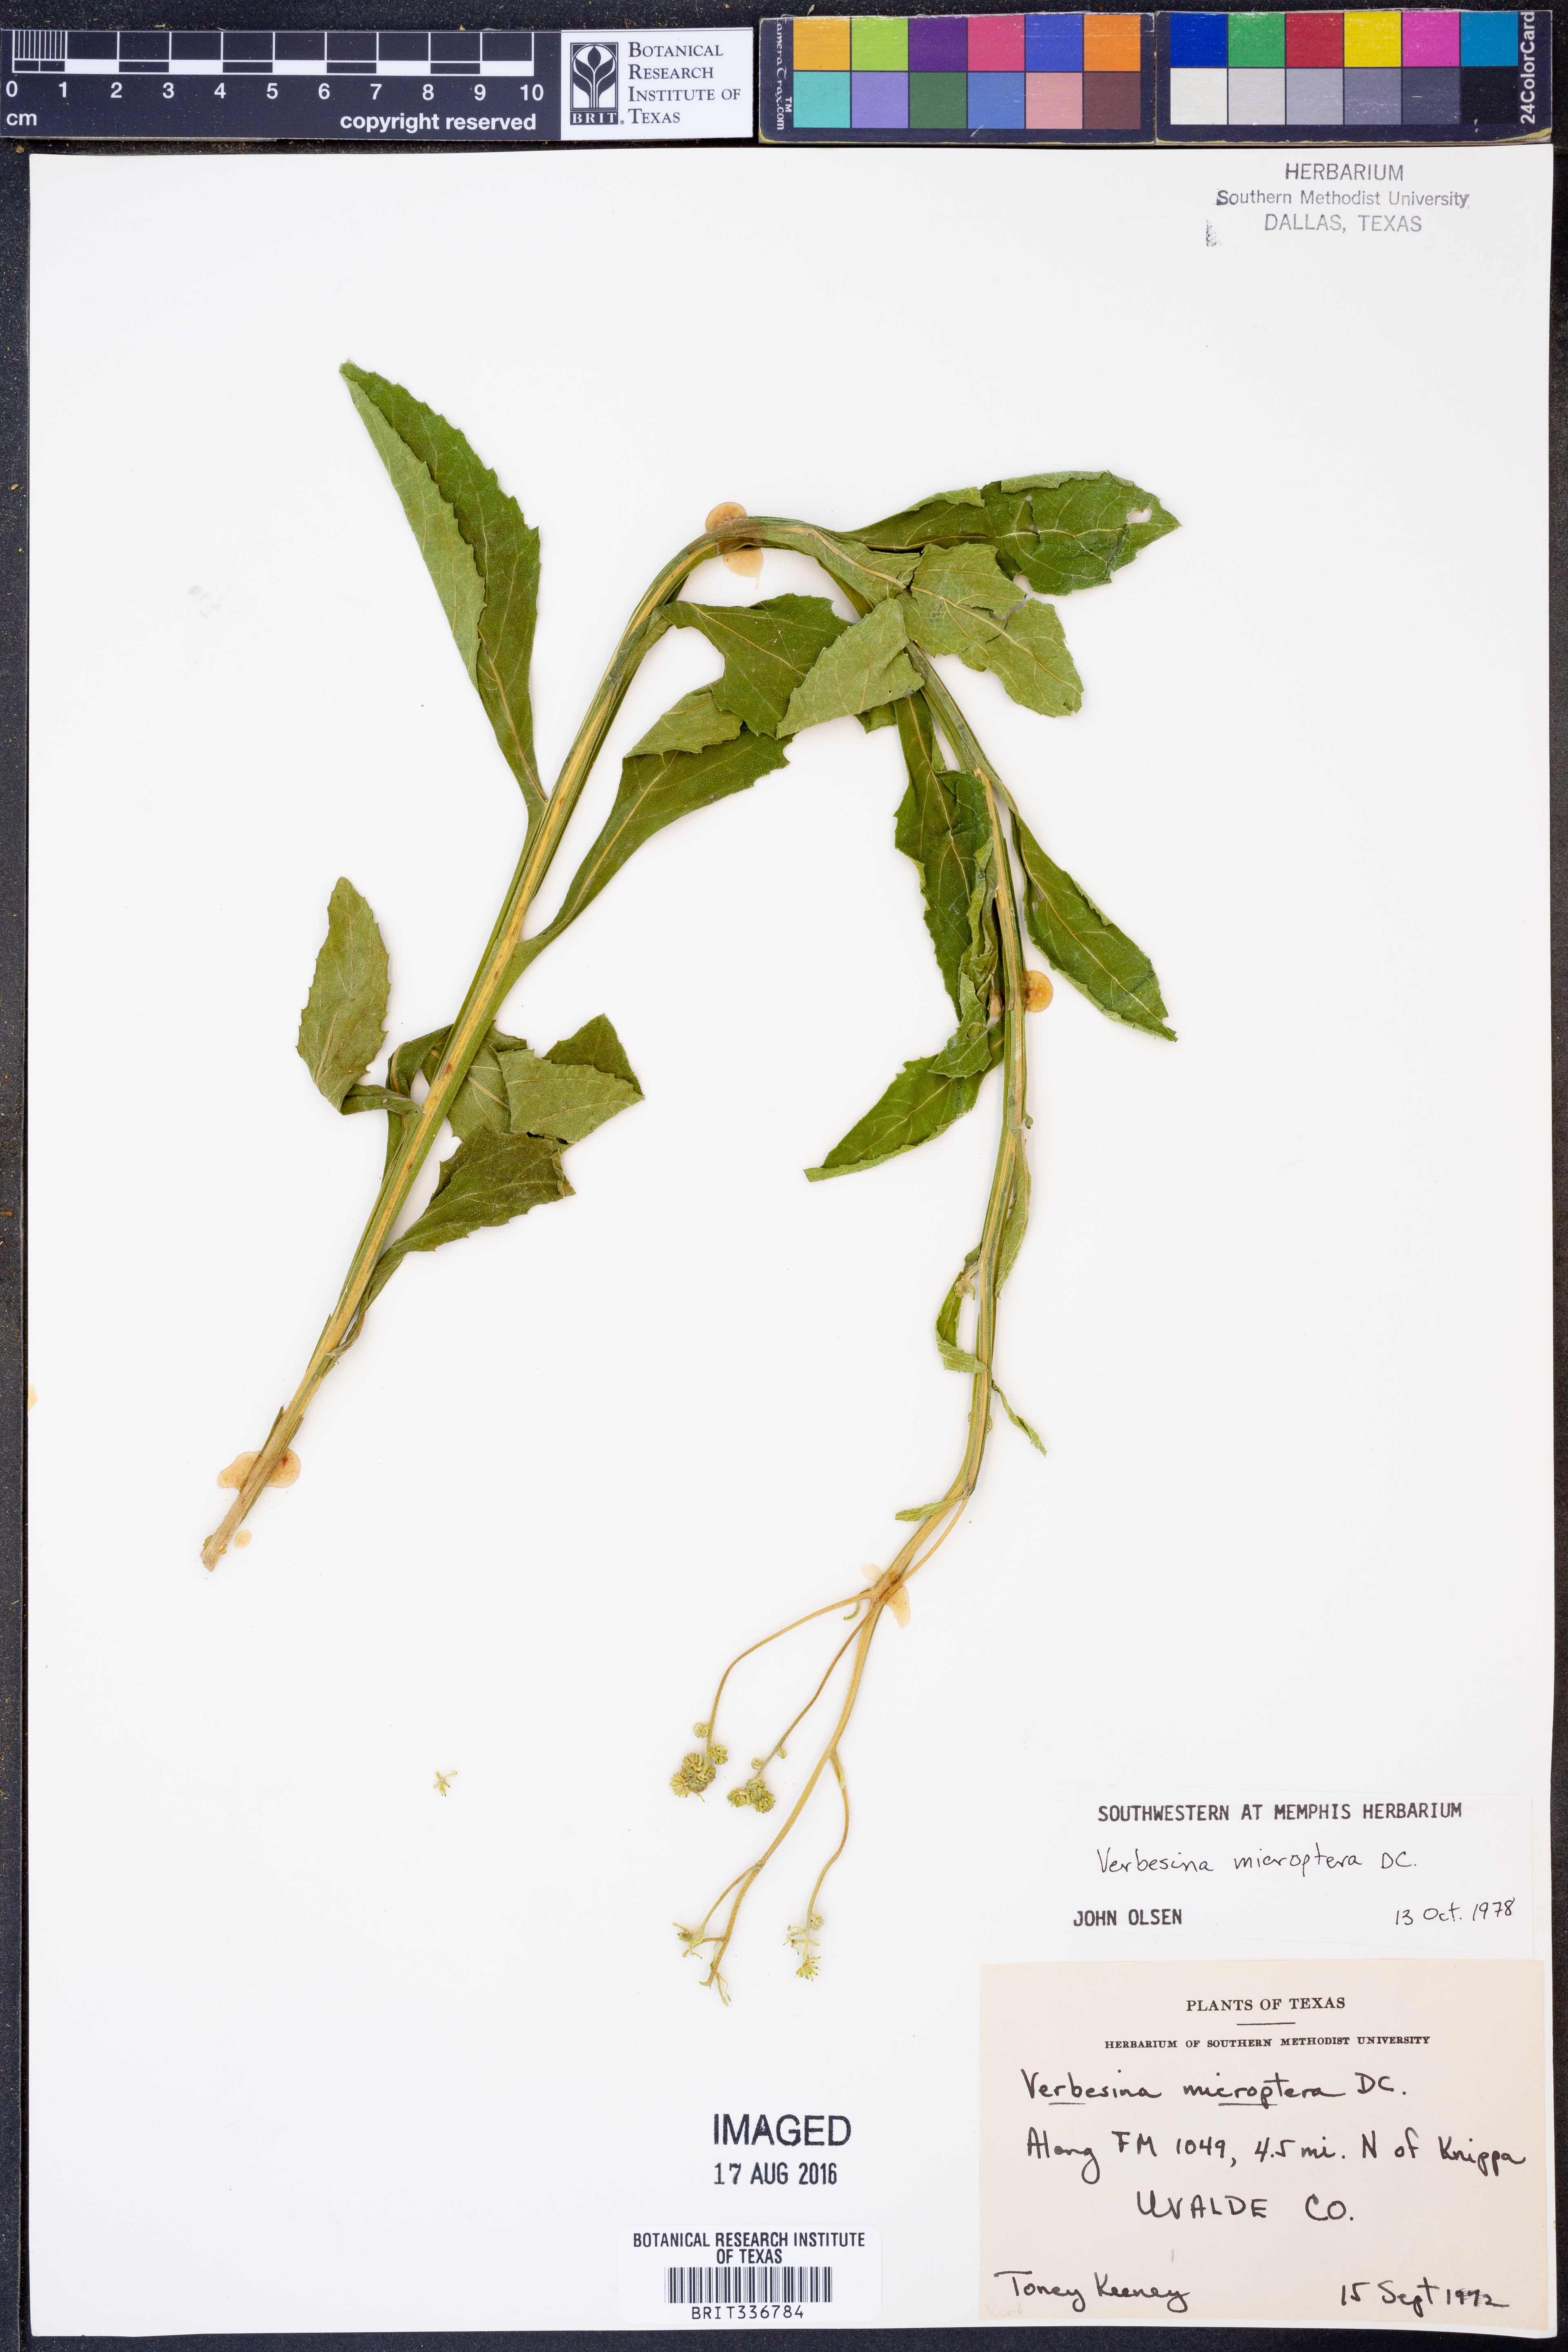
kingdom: Plantae
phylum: Tracheophyta
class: Magnoliopsida
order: Asterales
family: Asteraceae
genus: Verbesina
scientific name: Verbesina encelioides
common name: Golden crownbeard
